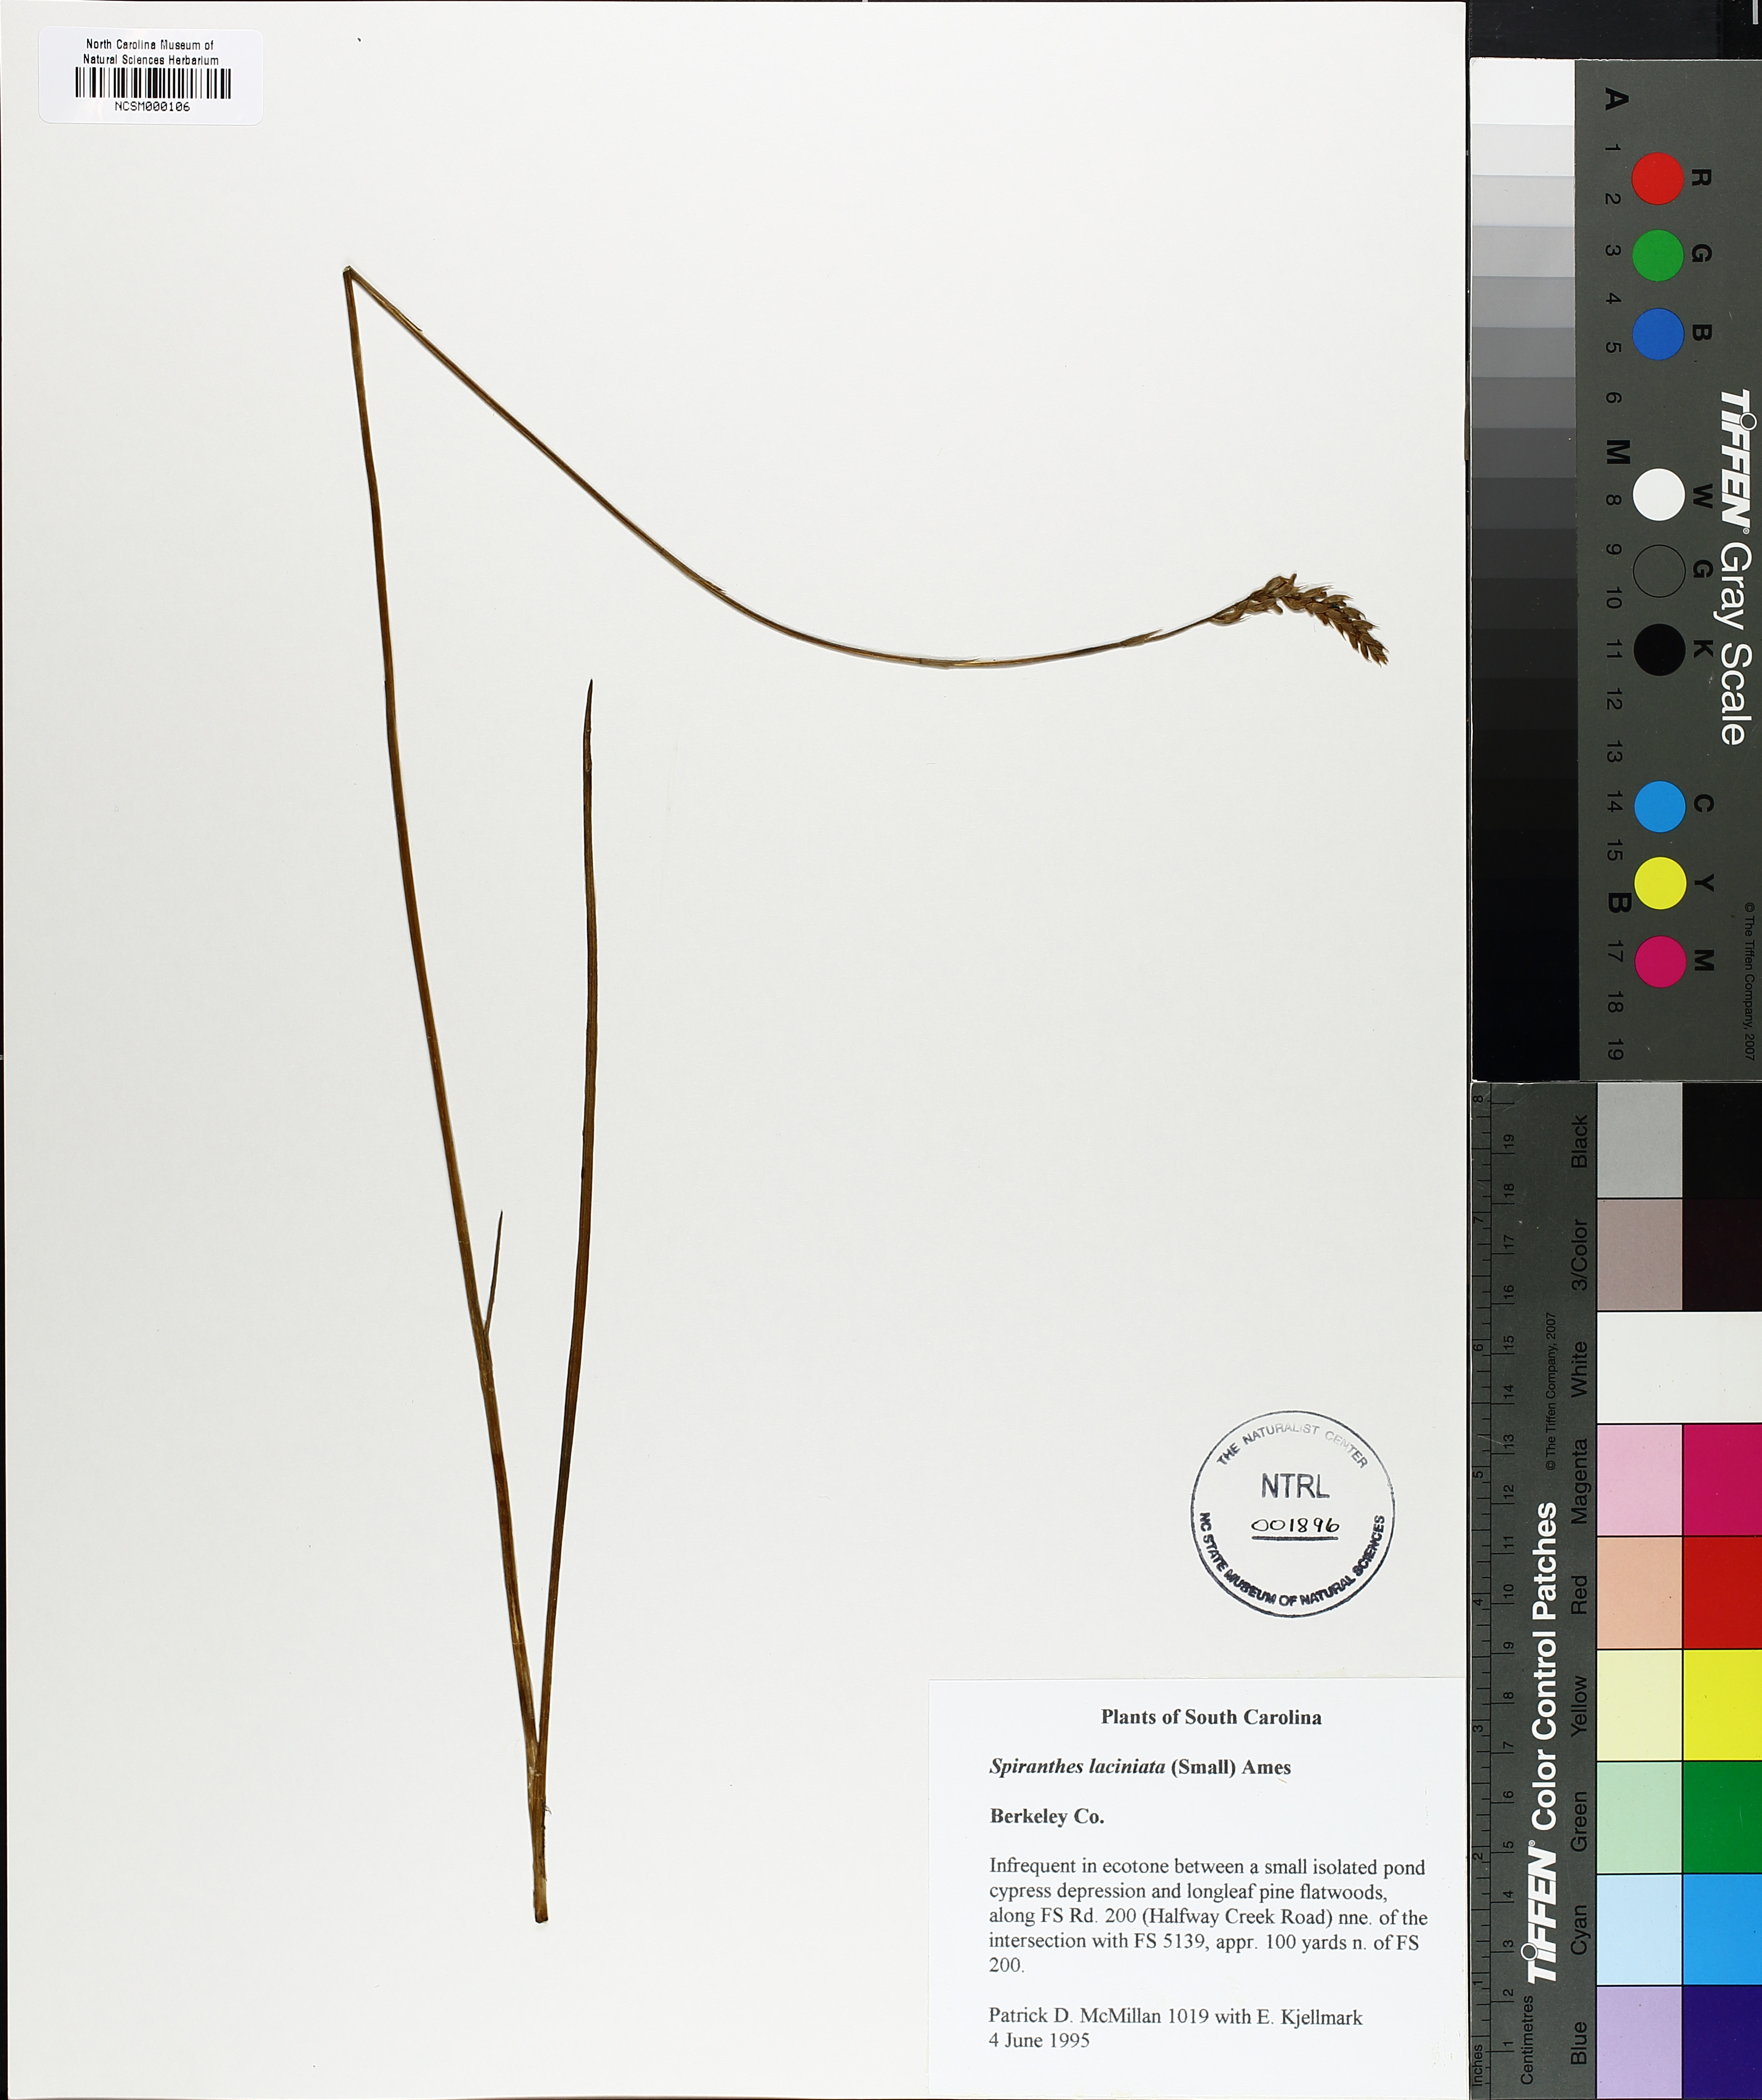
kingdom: Plantae
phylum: Tracheophyta
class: Liliopsida
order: Asparagales
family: Orchidaceae
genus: Spiranthes
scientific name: Spiranthes laciniata
